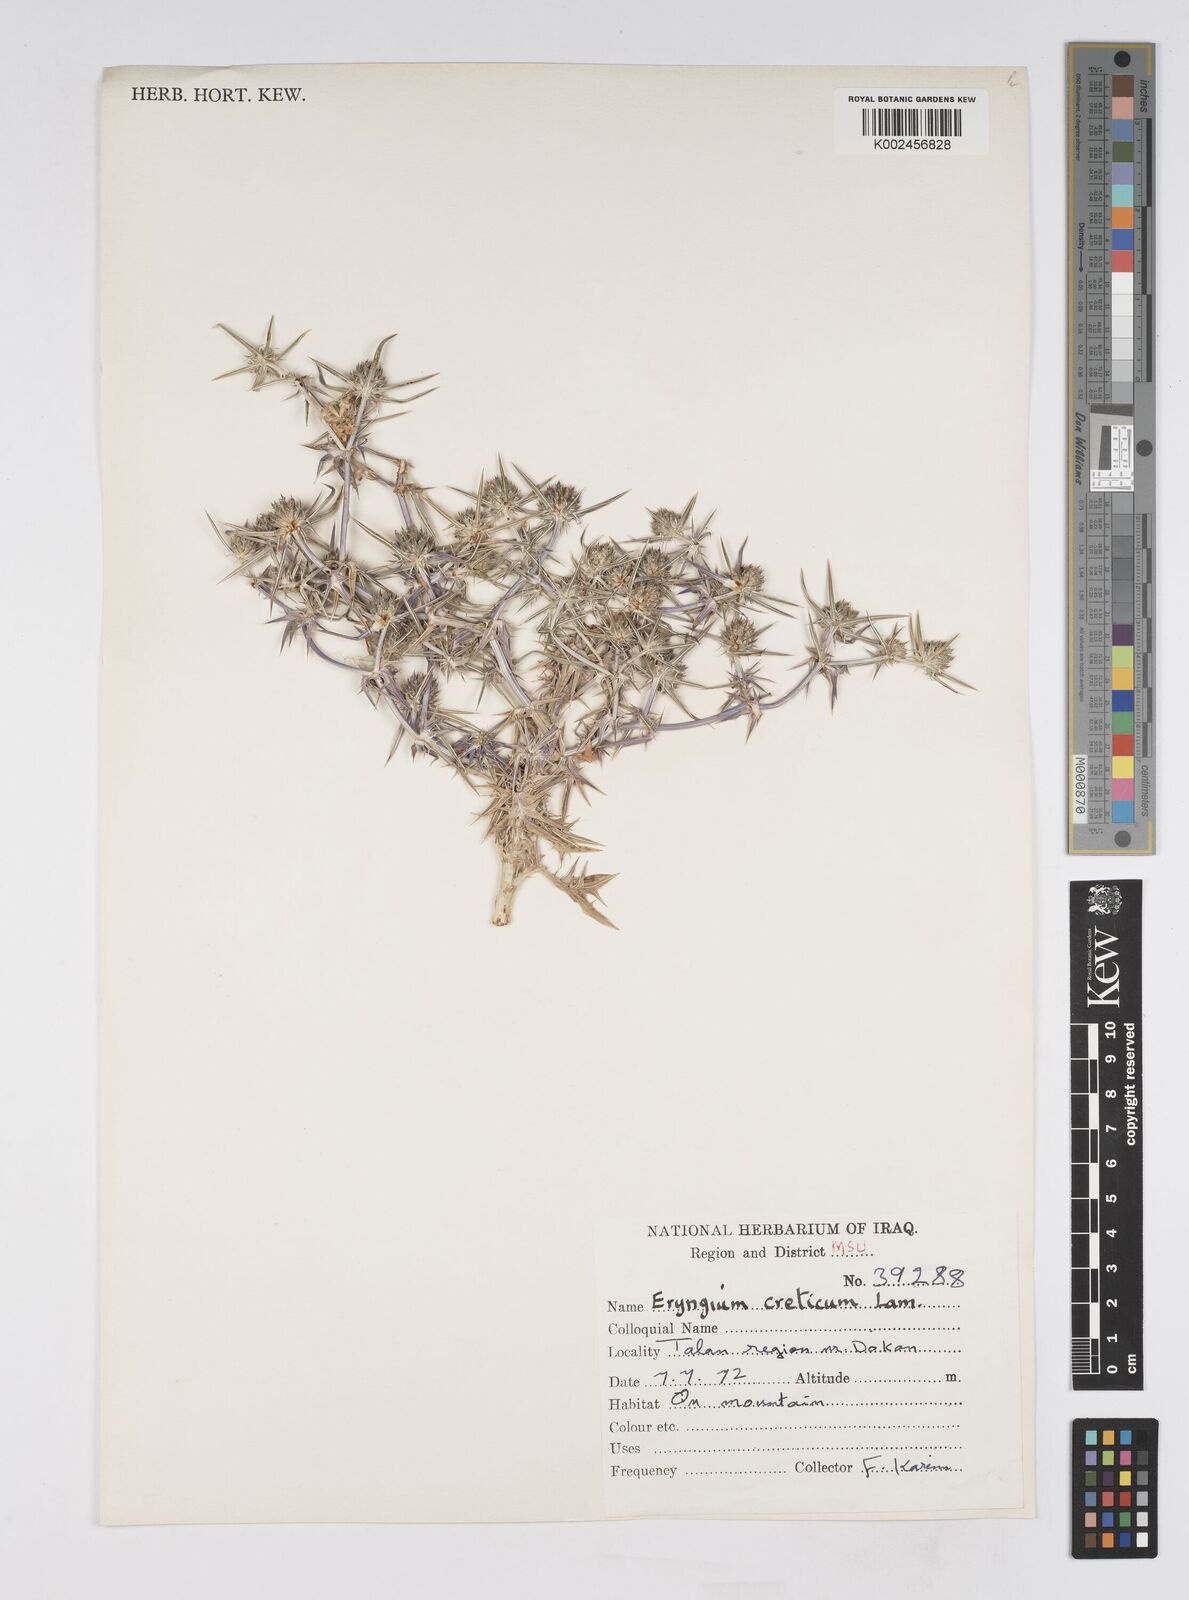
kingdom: Plantae
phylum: Tracheophyta
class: Magnoliopsida
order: Apiales
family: Apiaceae
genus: Eryngium
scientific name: Eryngium creticum
